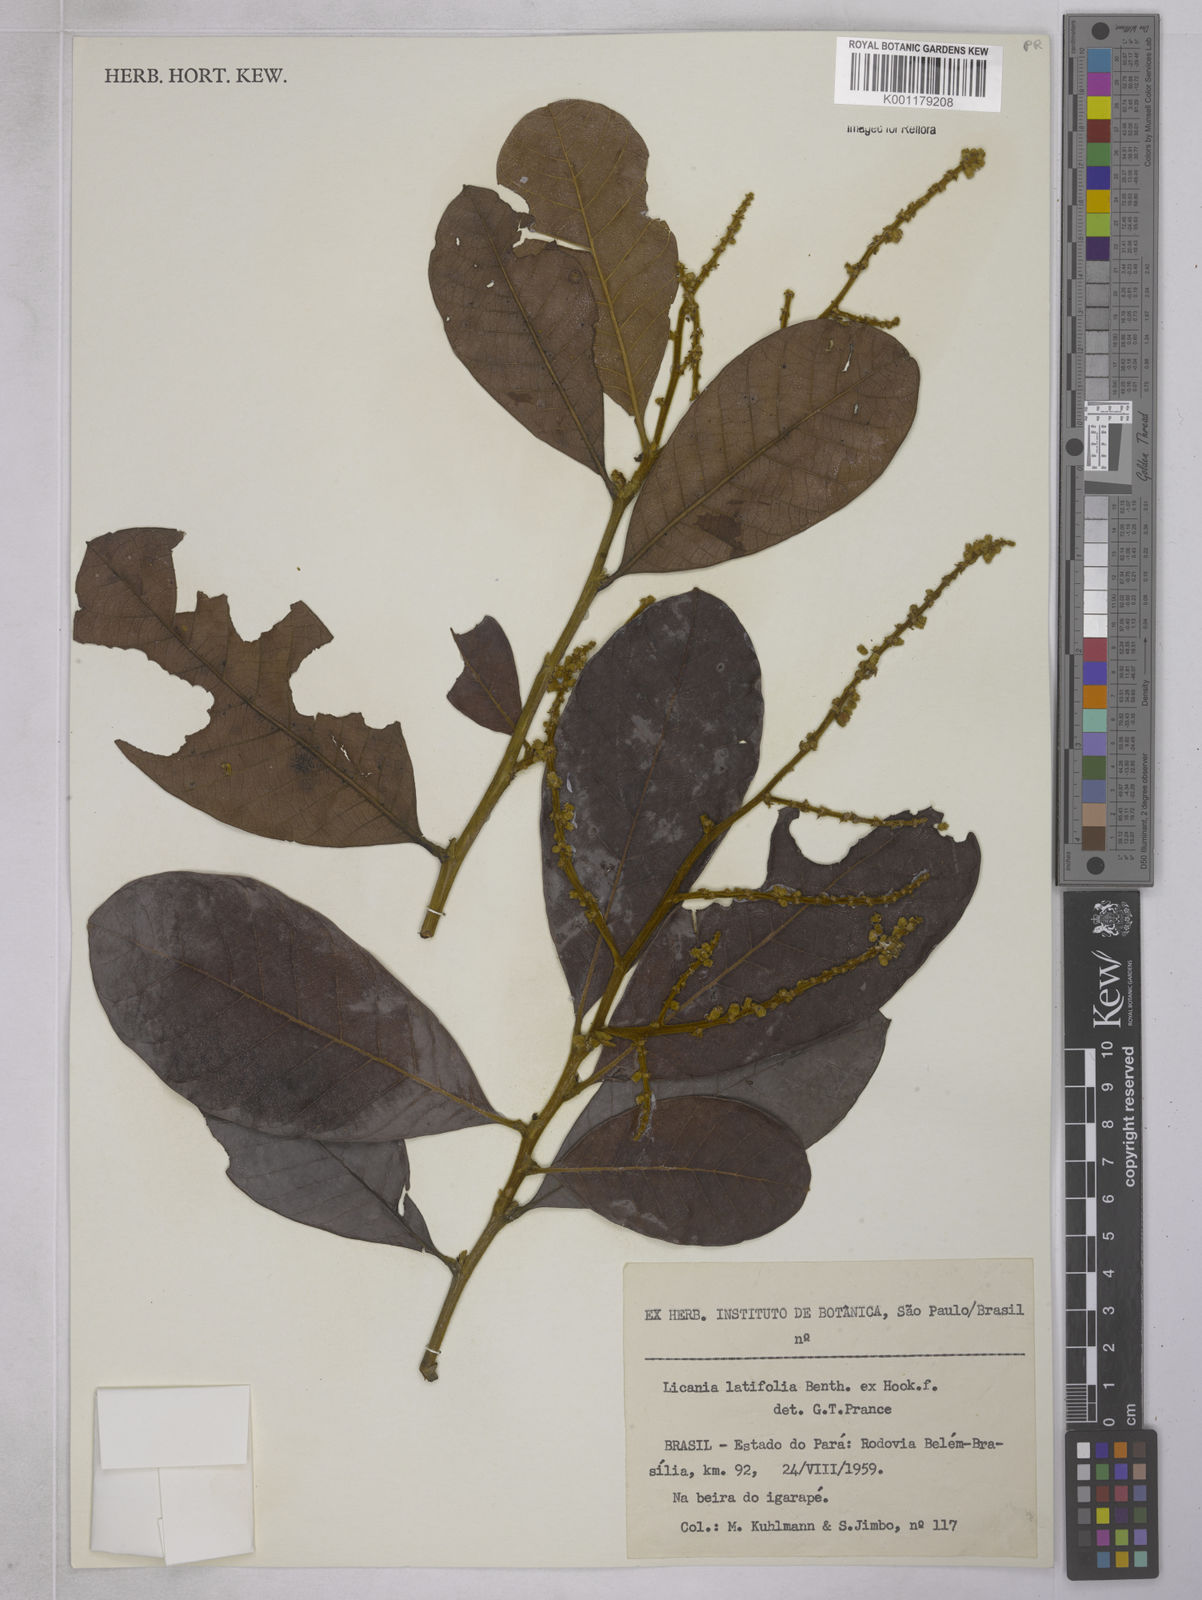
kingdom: Plantae
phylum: Tracheophyta
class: Magnoliopsida
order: Malpighiales
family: Chrysobalanaceae
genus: Hymenopus
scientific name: Hymenopus latifolius
